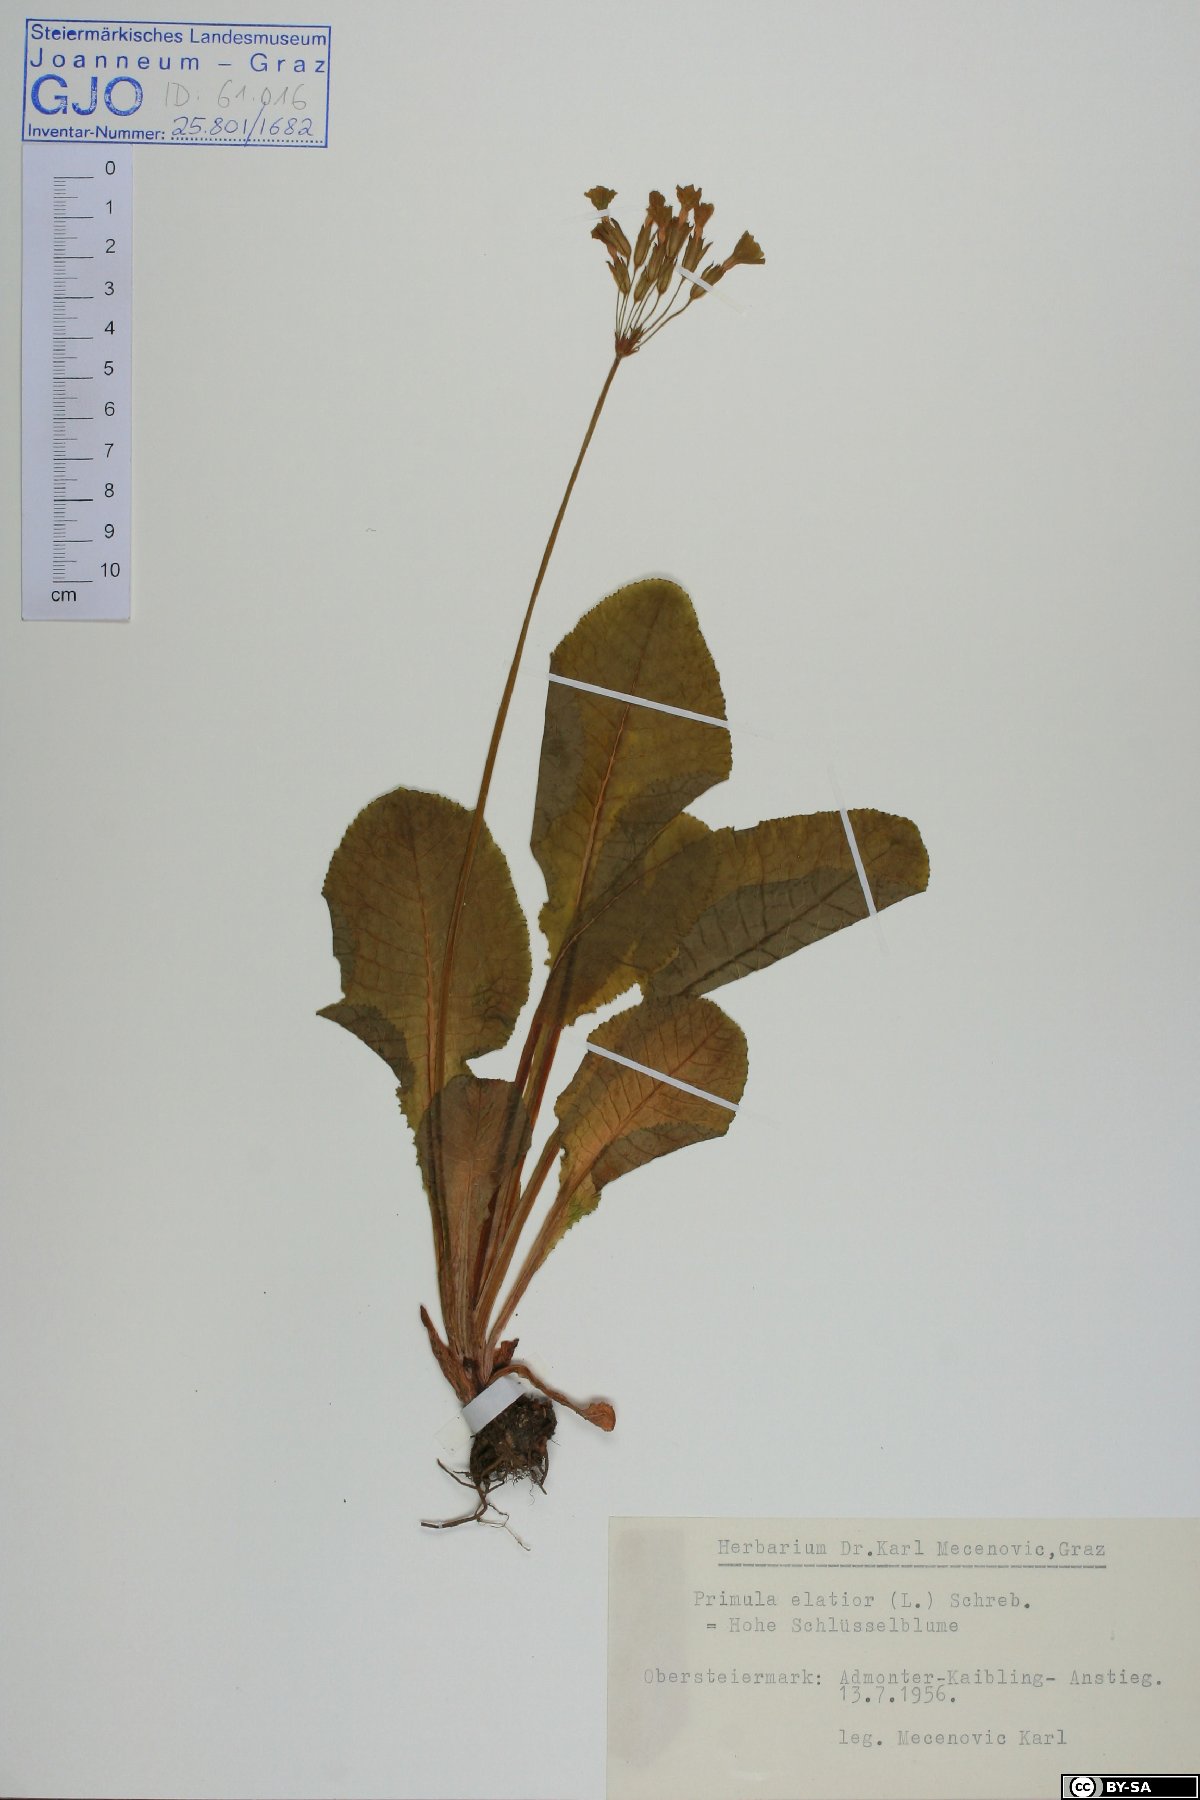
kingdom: Plantae
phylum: Tracheophyta
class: Magnoliopsida
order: Ericales
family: Primulaceae
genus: Primula
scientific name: Primula elatior
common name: Oxlip
